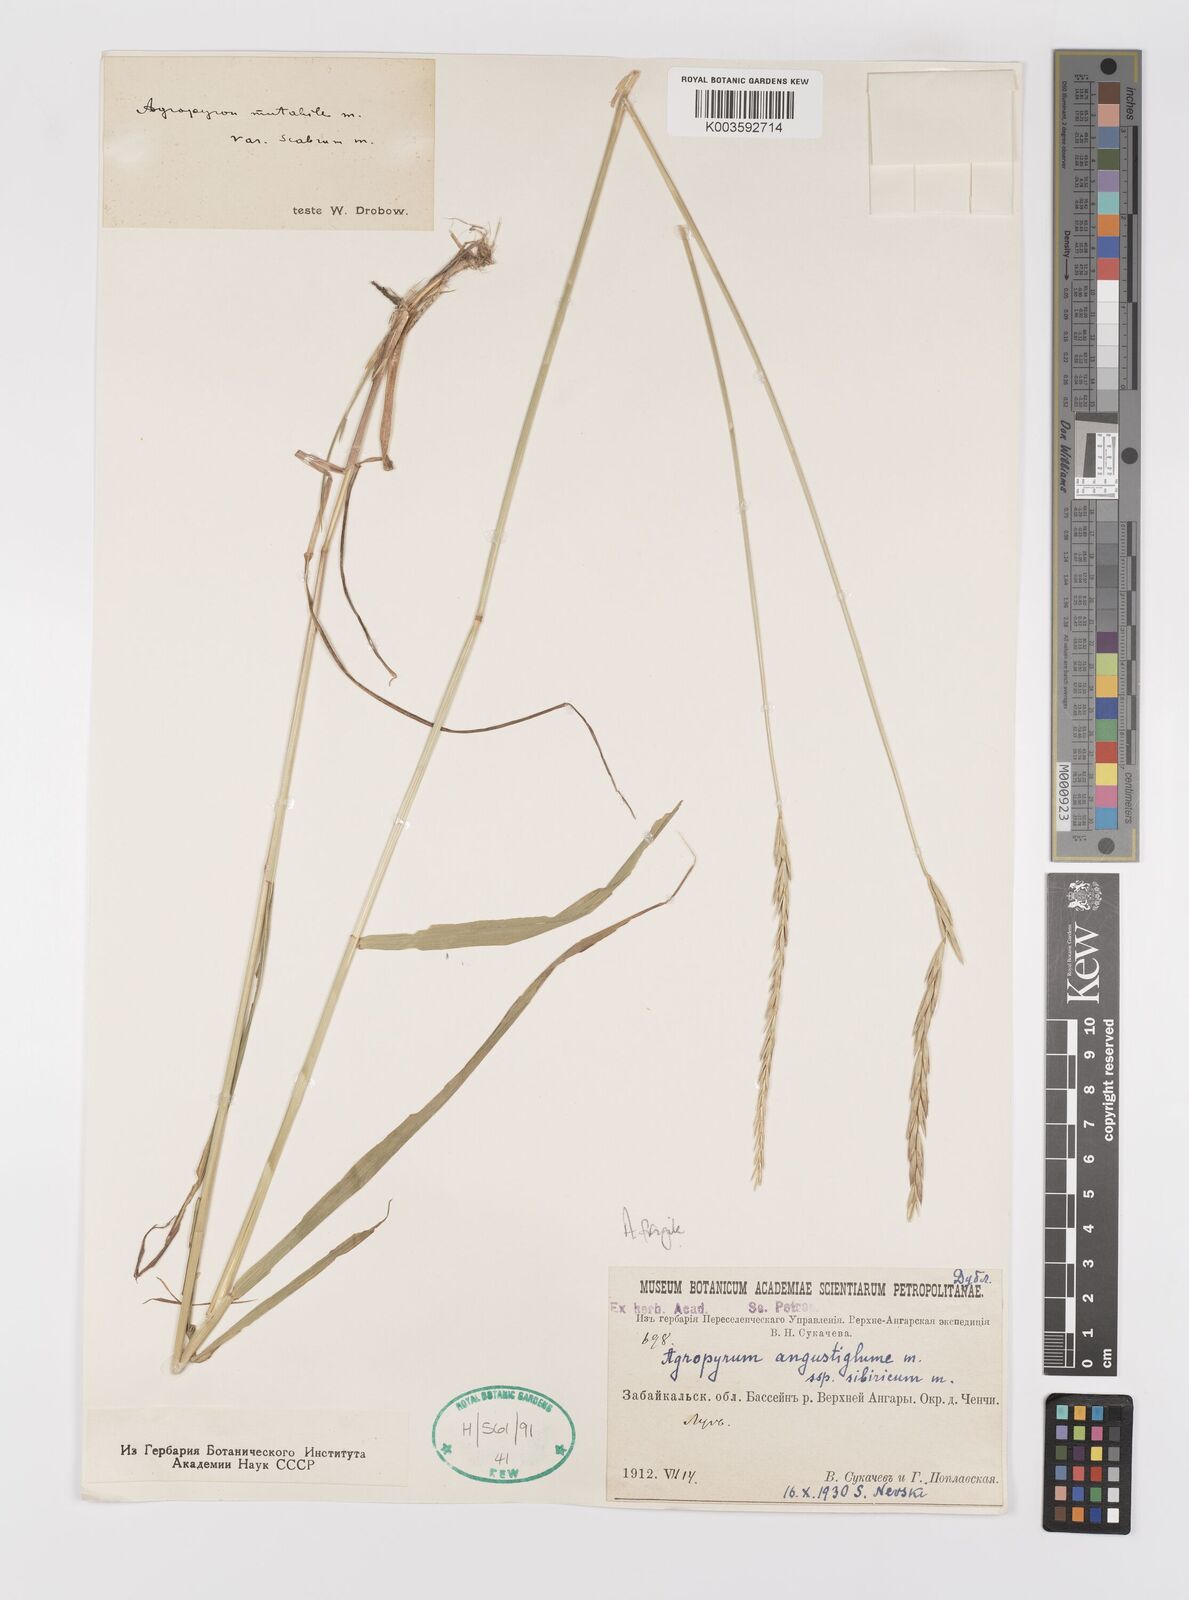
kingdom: Plantae
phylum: Tracheophyta
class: Liliopsida
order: Poales
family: Poaceae
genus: Agropyron
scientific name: Agropyron fragile
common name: Siberian wheatgrass
